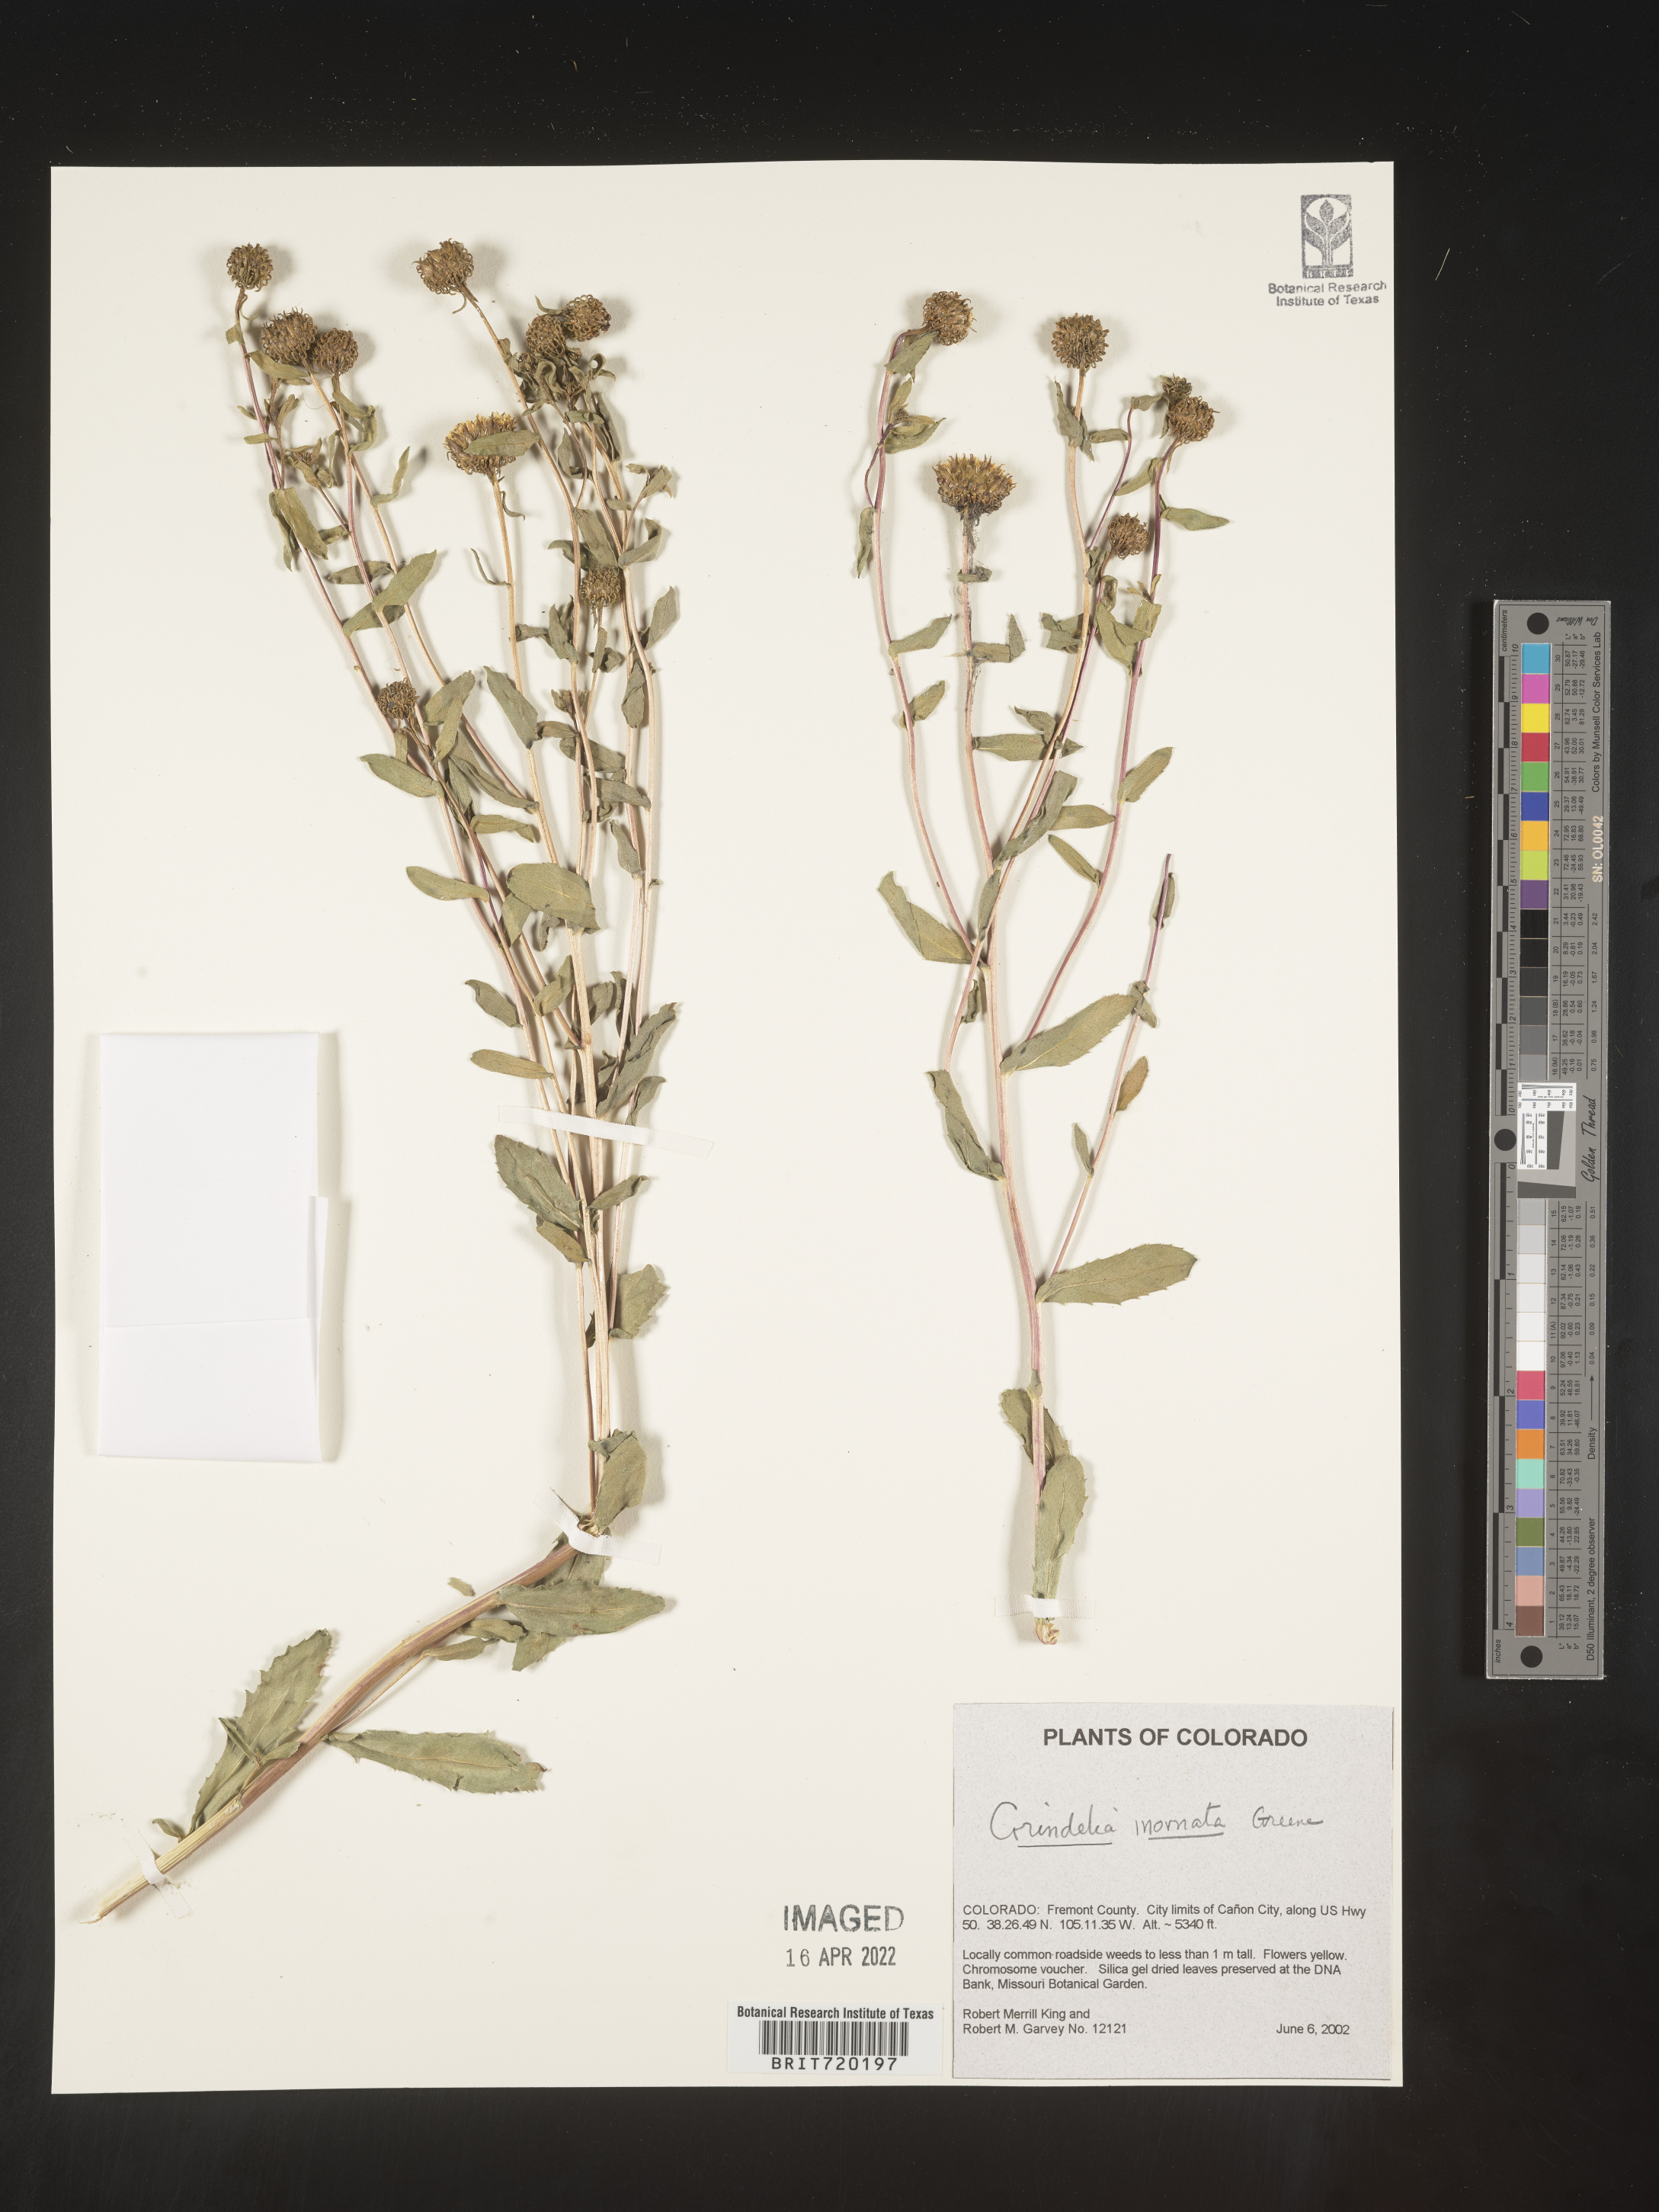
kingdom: Plantae
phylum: Tracheophyta
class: Magnoliopsida
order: Asterales
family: Asteraceae
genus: Grindelia
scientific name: Grindelia hirsutula
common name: Hairy gumweed
